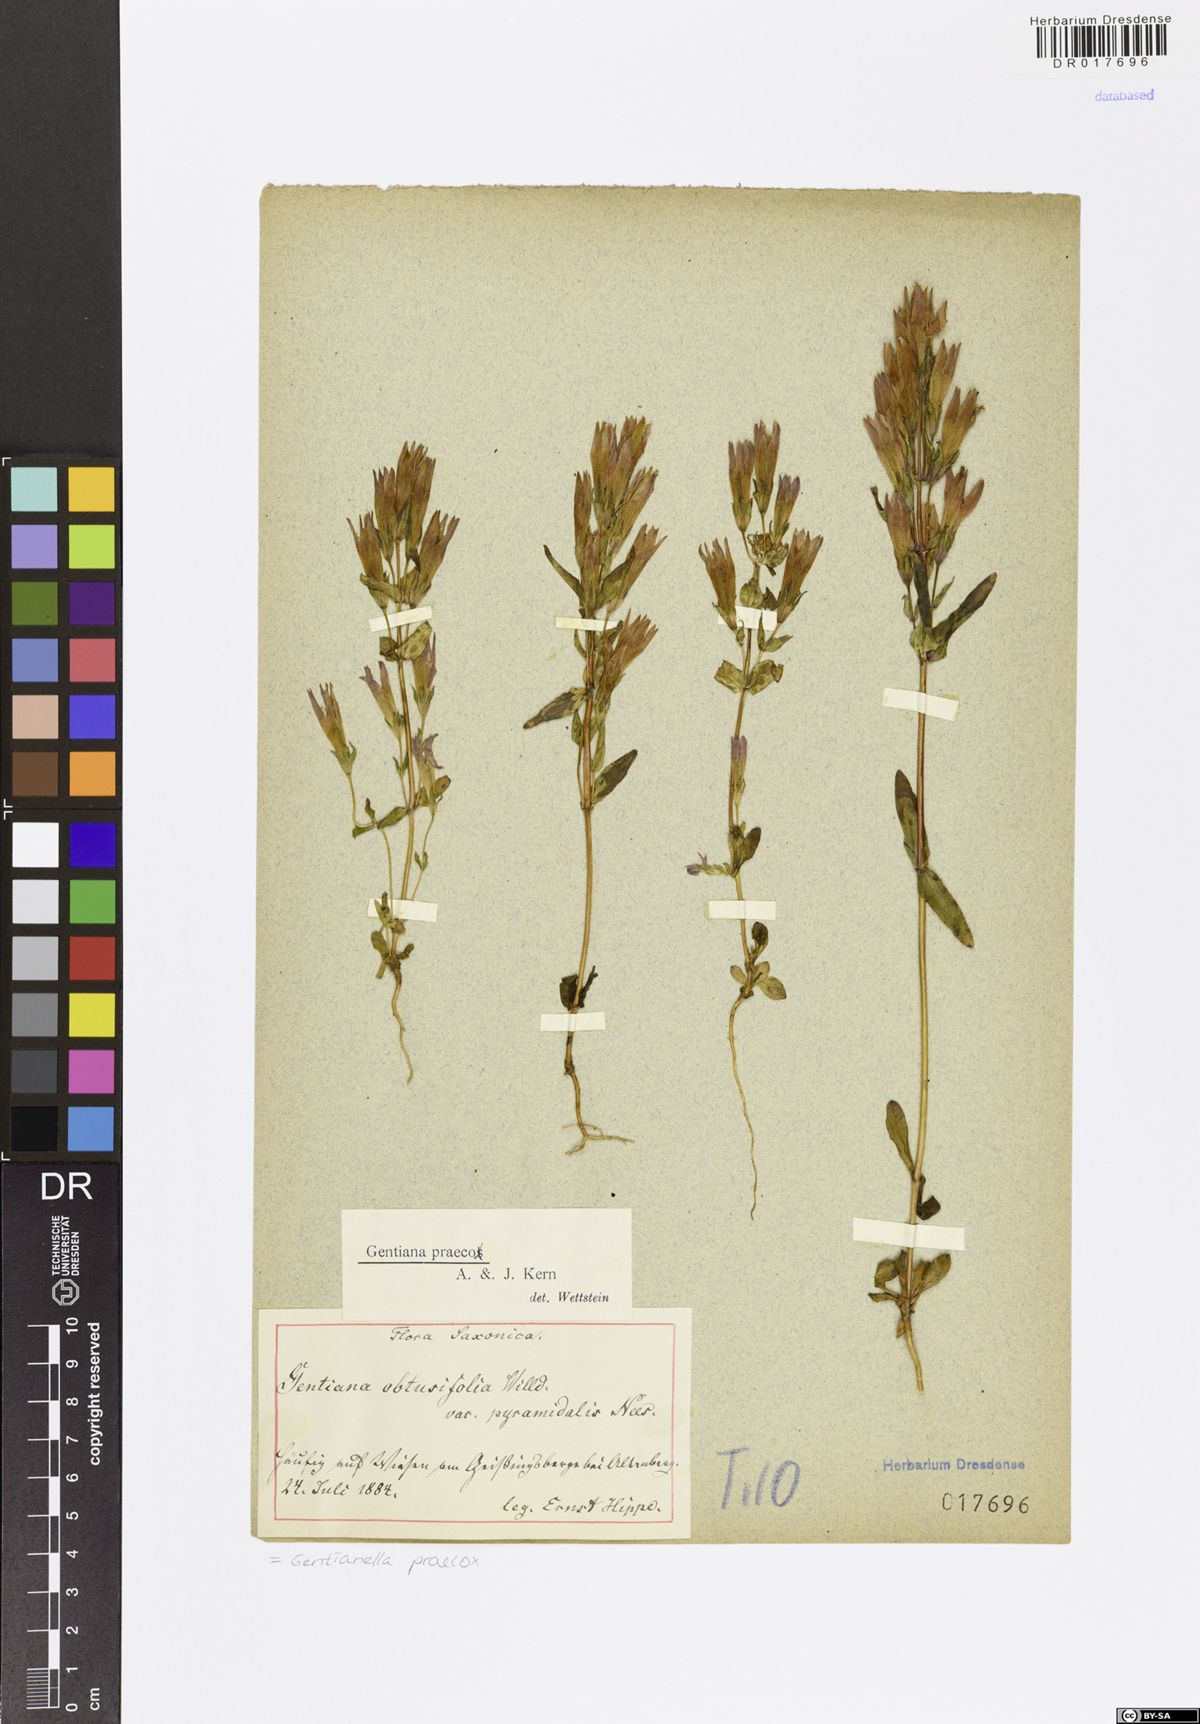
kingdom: Plantae
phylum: Tracheophyta
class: Magnoliopsida
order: Gentianales
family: Gentianaceae
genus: Gentianella
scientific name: Gentianella praecox
